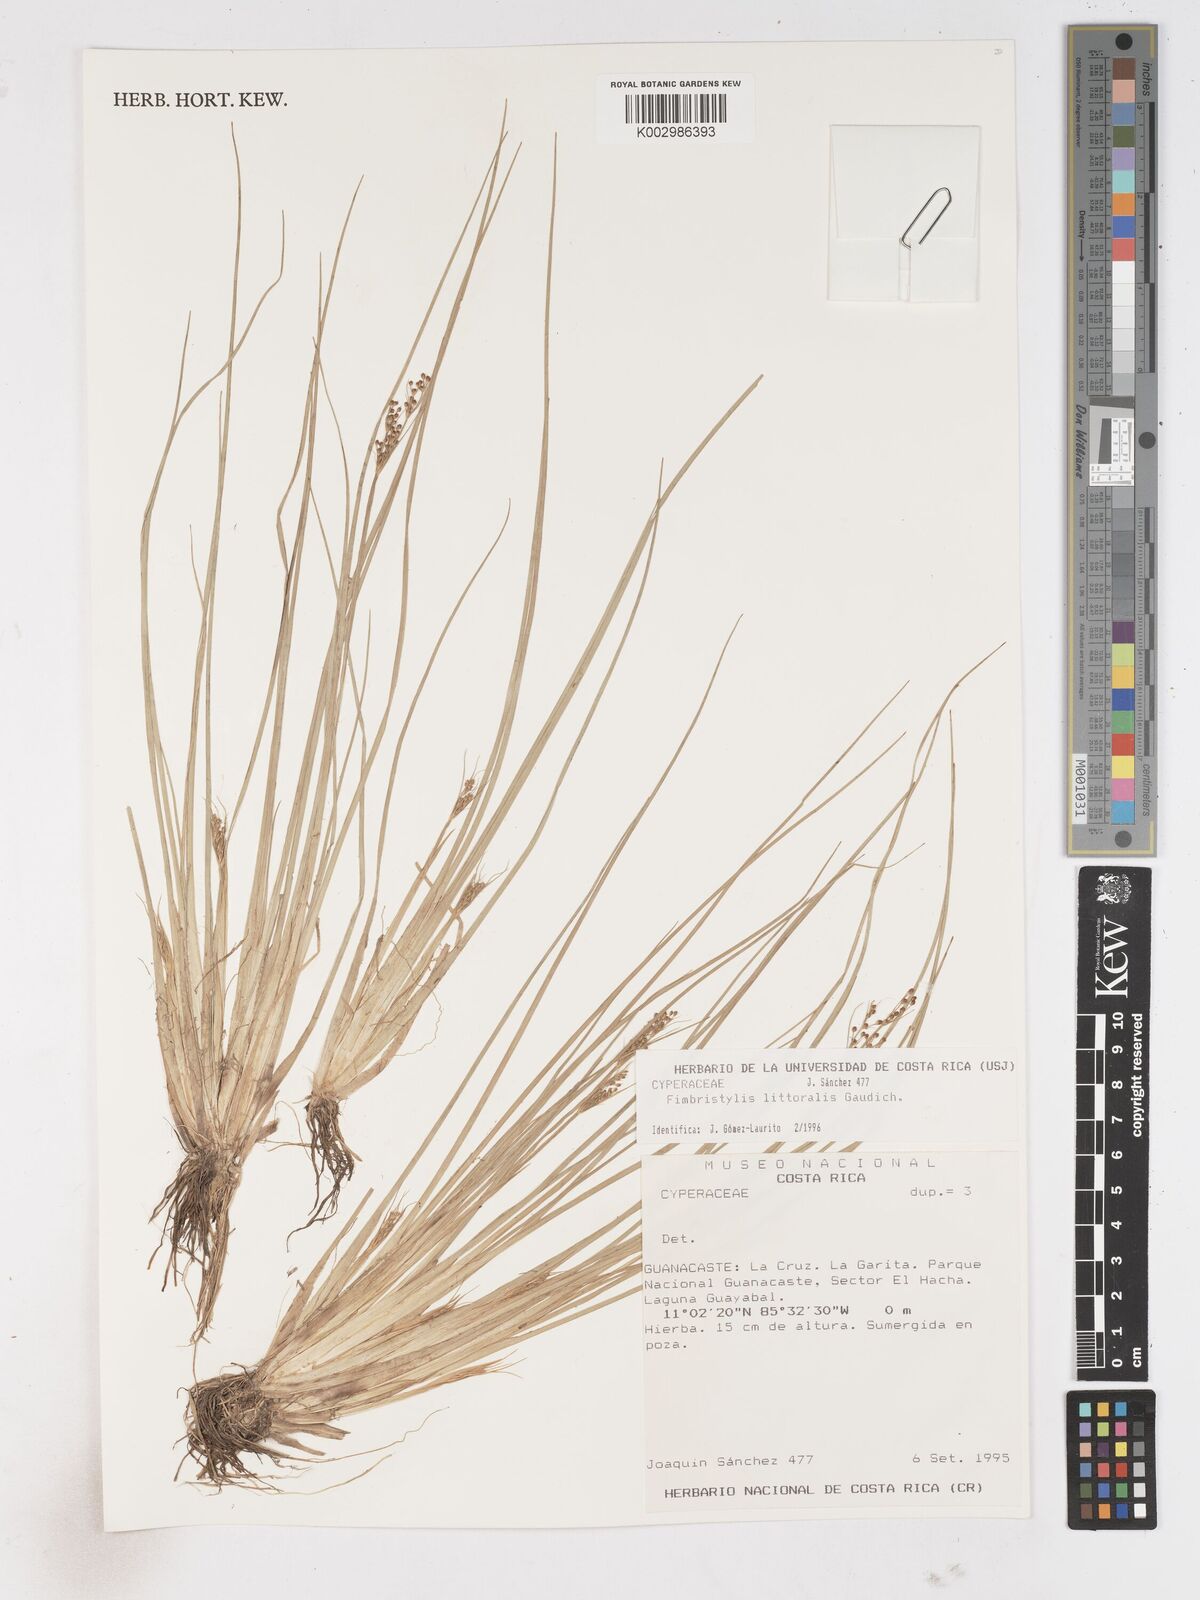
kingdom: Plantae
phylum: Tracheophyta
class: Liliopsida
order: Poales
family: Cyperaceae
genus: Fimbristylis
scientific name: Fimbristylis littoralis
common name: Fimbry
